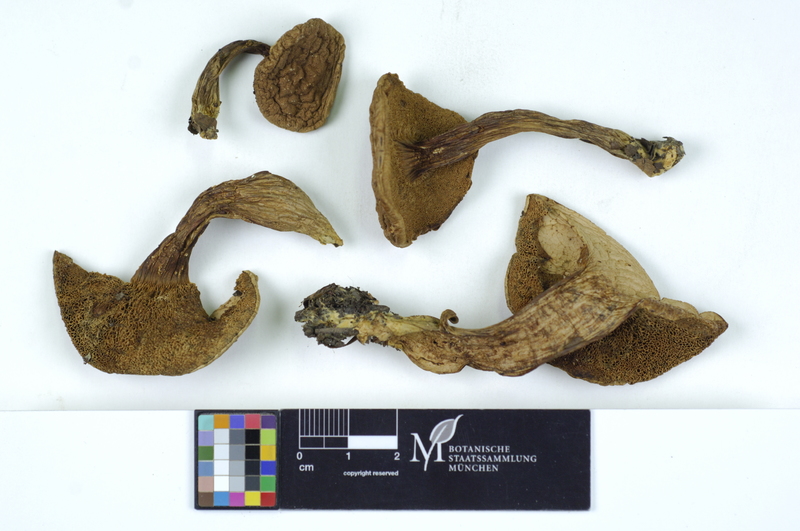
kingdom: Fungi
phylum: Basidiomycota
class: Agaricomycetes
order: Boletales
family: Boletaceae
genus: Hortiboletus
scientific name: Hortiboletus rubellus
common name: Ruby bolete
